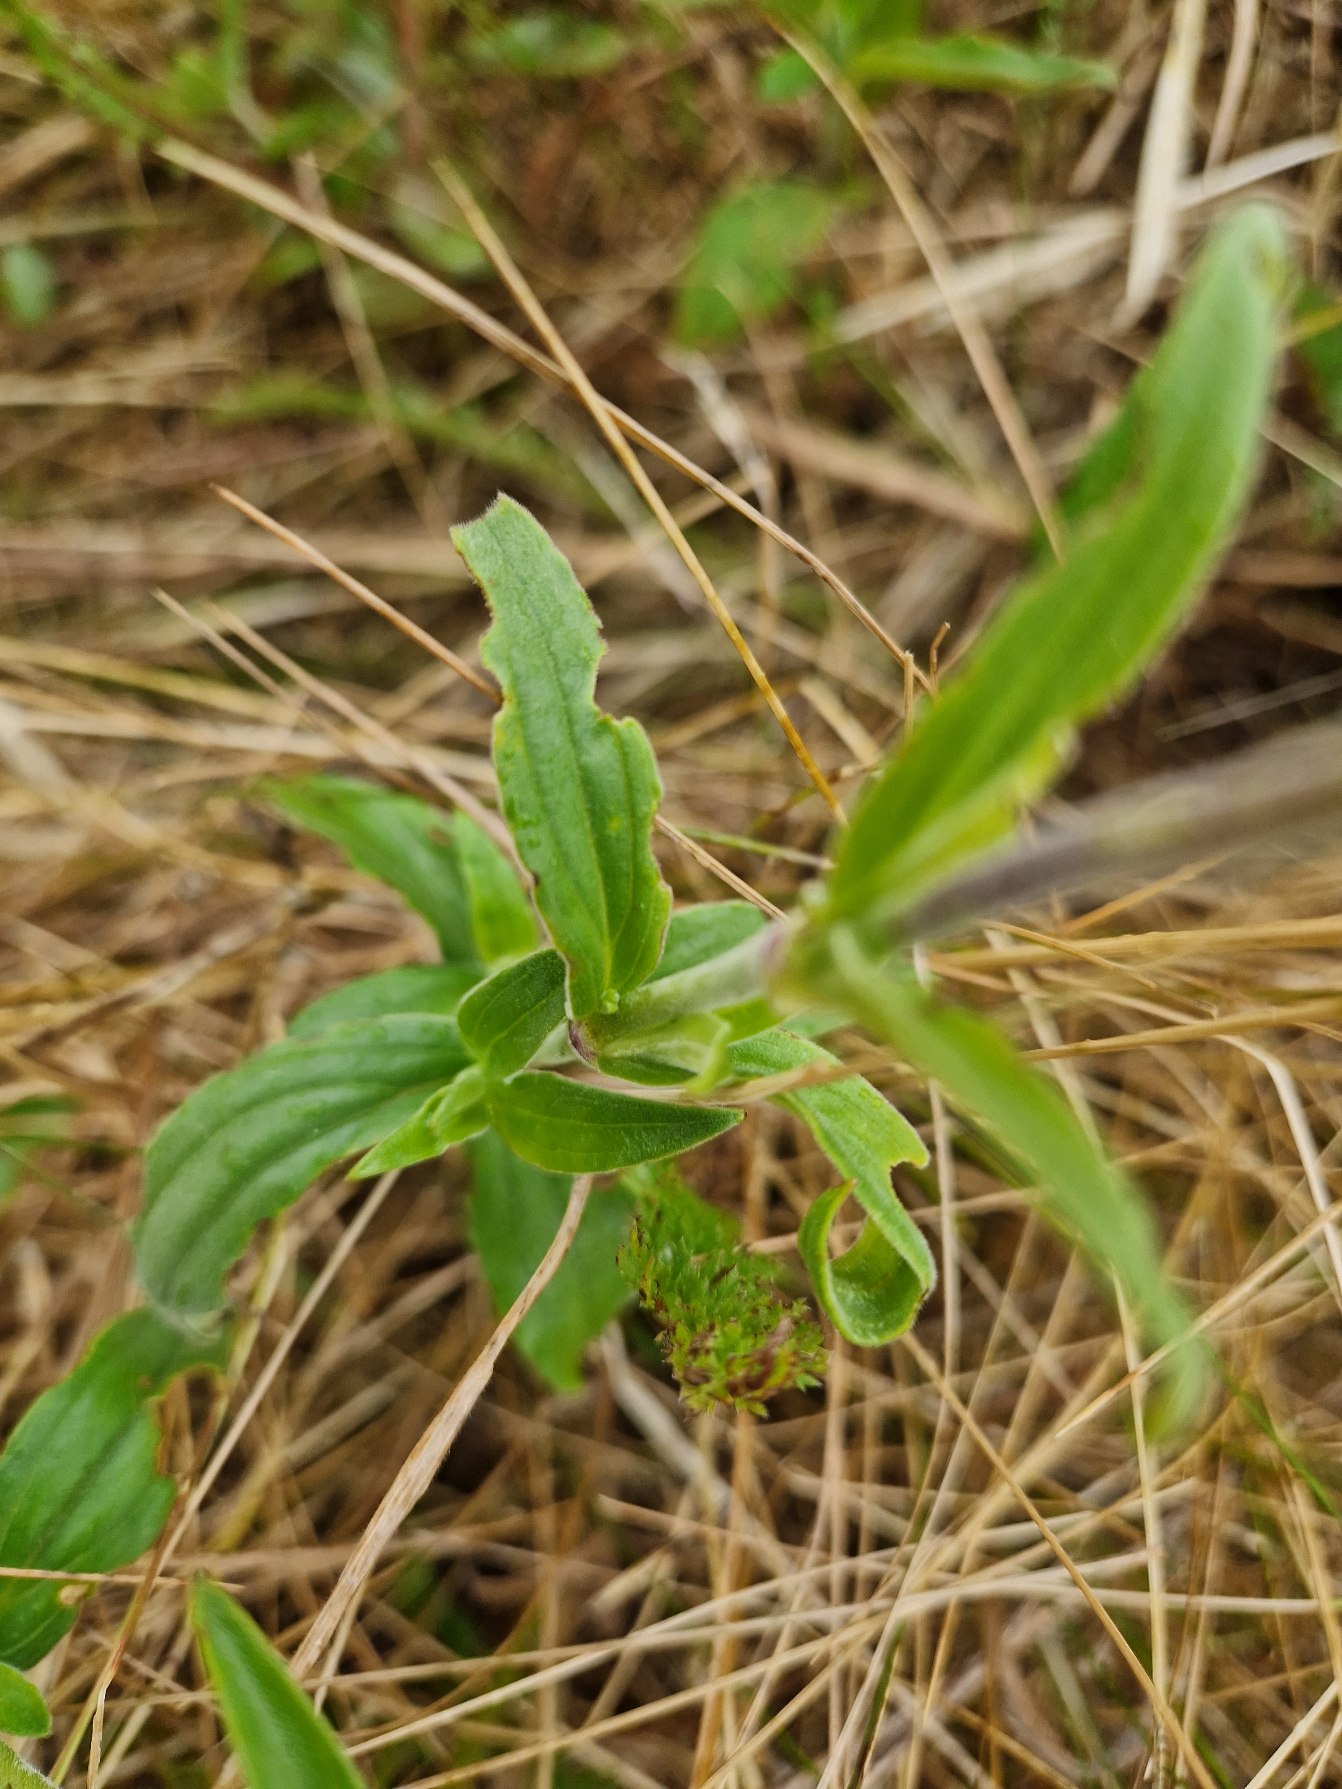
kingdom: Plantae
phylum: Tracheophyta
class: Magnoliopsida
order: Caryophyllales
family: Caryophyllaceae
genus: Silene
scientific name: Silene latifolia
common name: Aftenpragtstjerne
